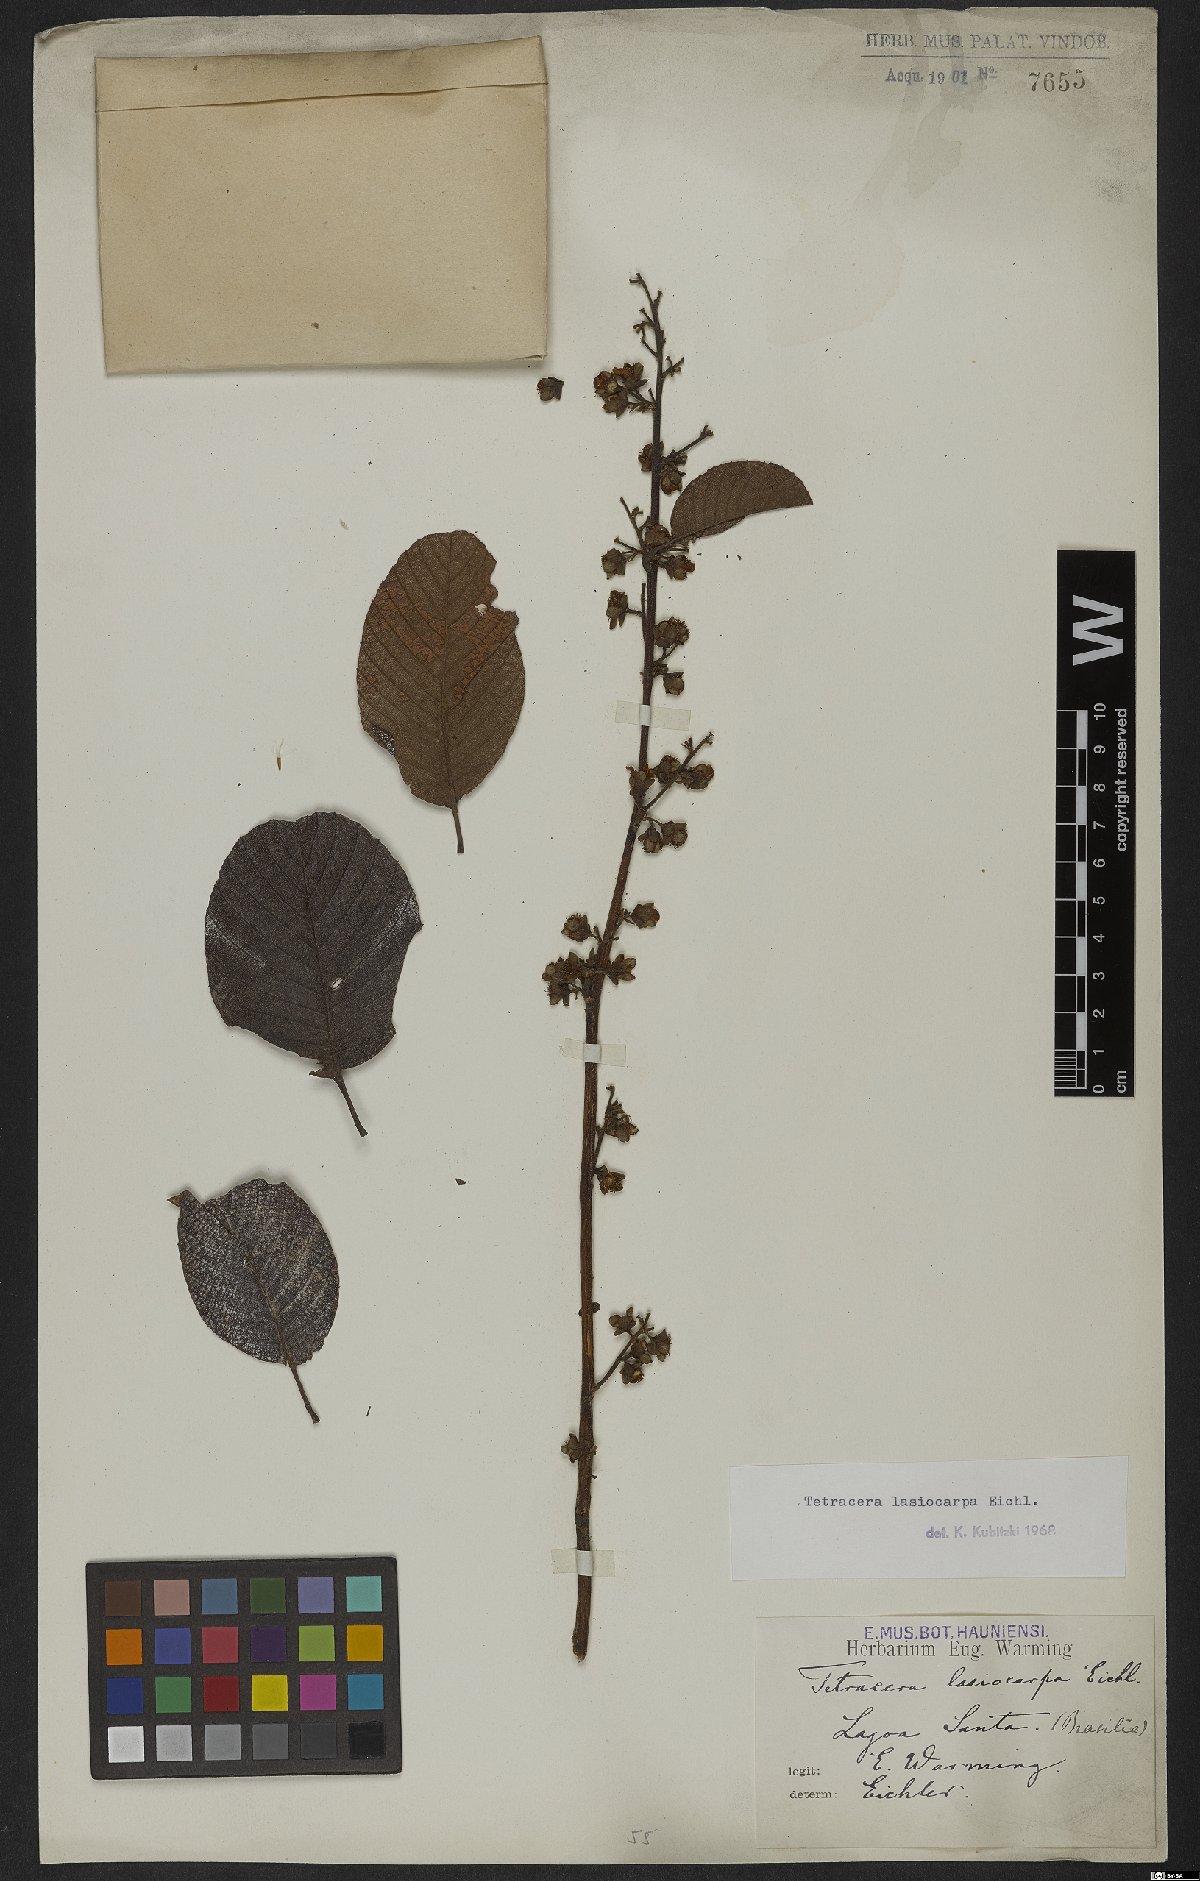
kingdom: Plantae
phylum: Tracheophyta
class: Magnoliopsida
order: Dilleniales
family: Dilleniaceae
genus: Tetracera
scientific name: Tetracera lasiocarpa
